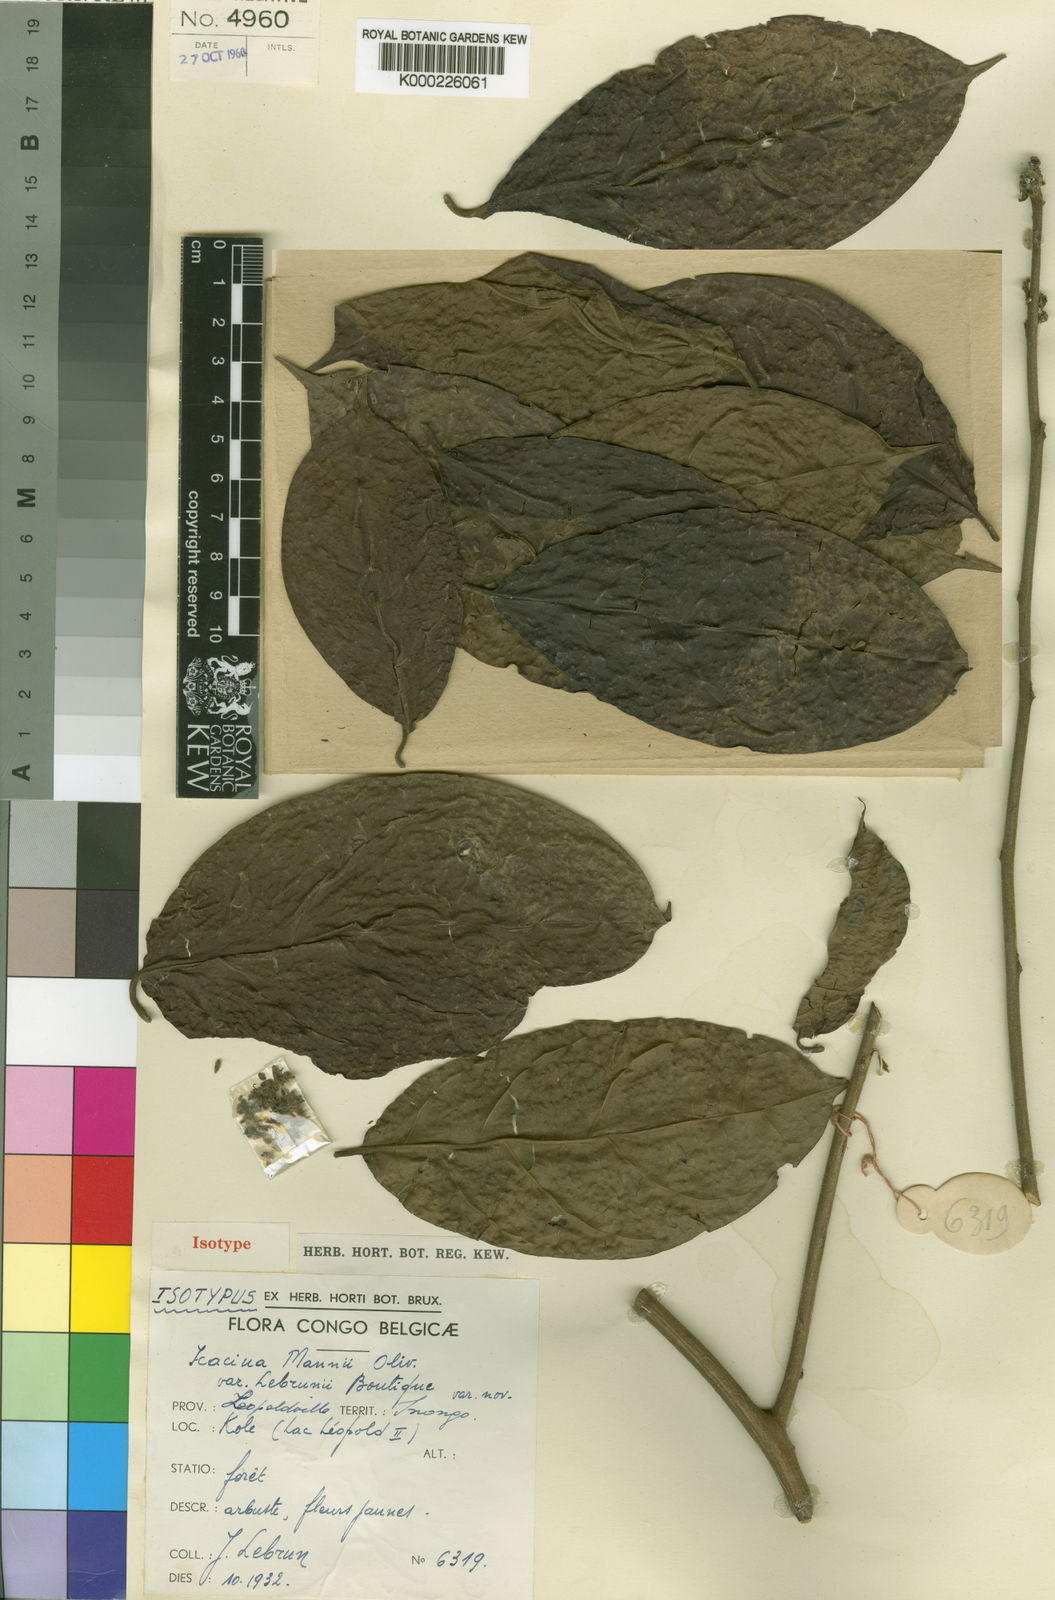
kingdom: Plantae
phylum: Tracheophyta
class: Magnoliopsida
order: Icacinales
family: Icacinaceae
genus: Icacina
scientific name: Icacina mannii
